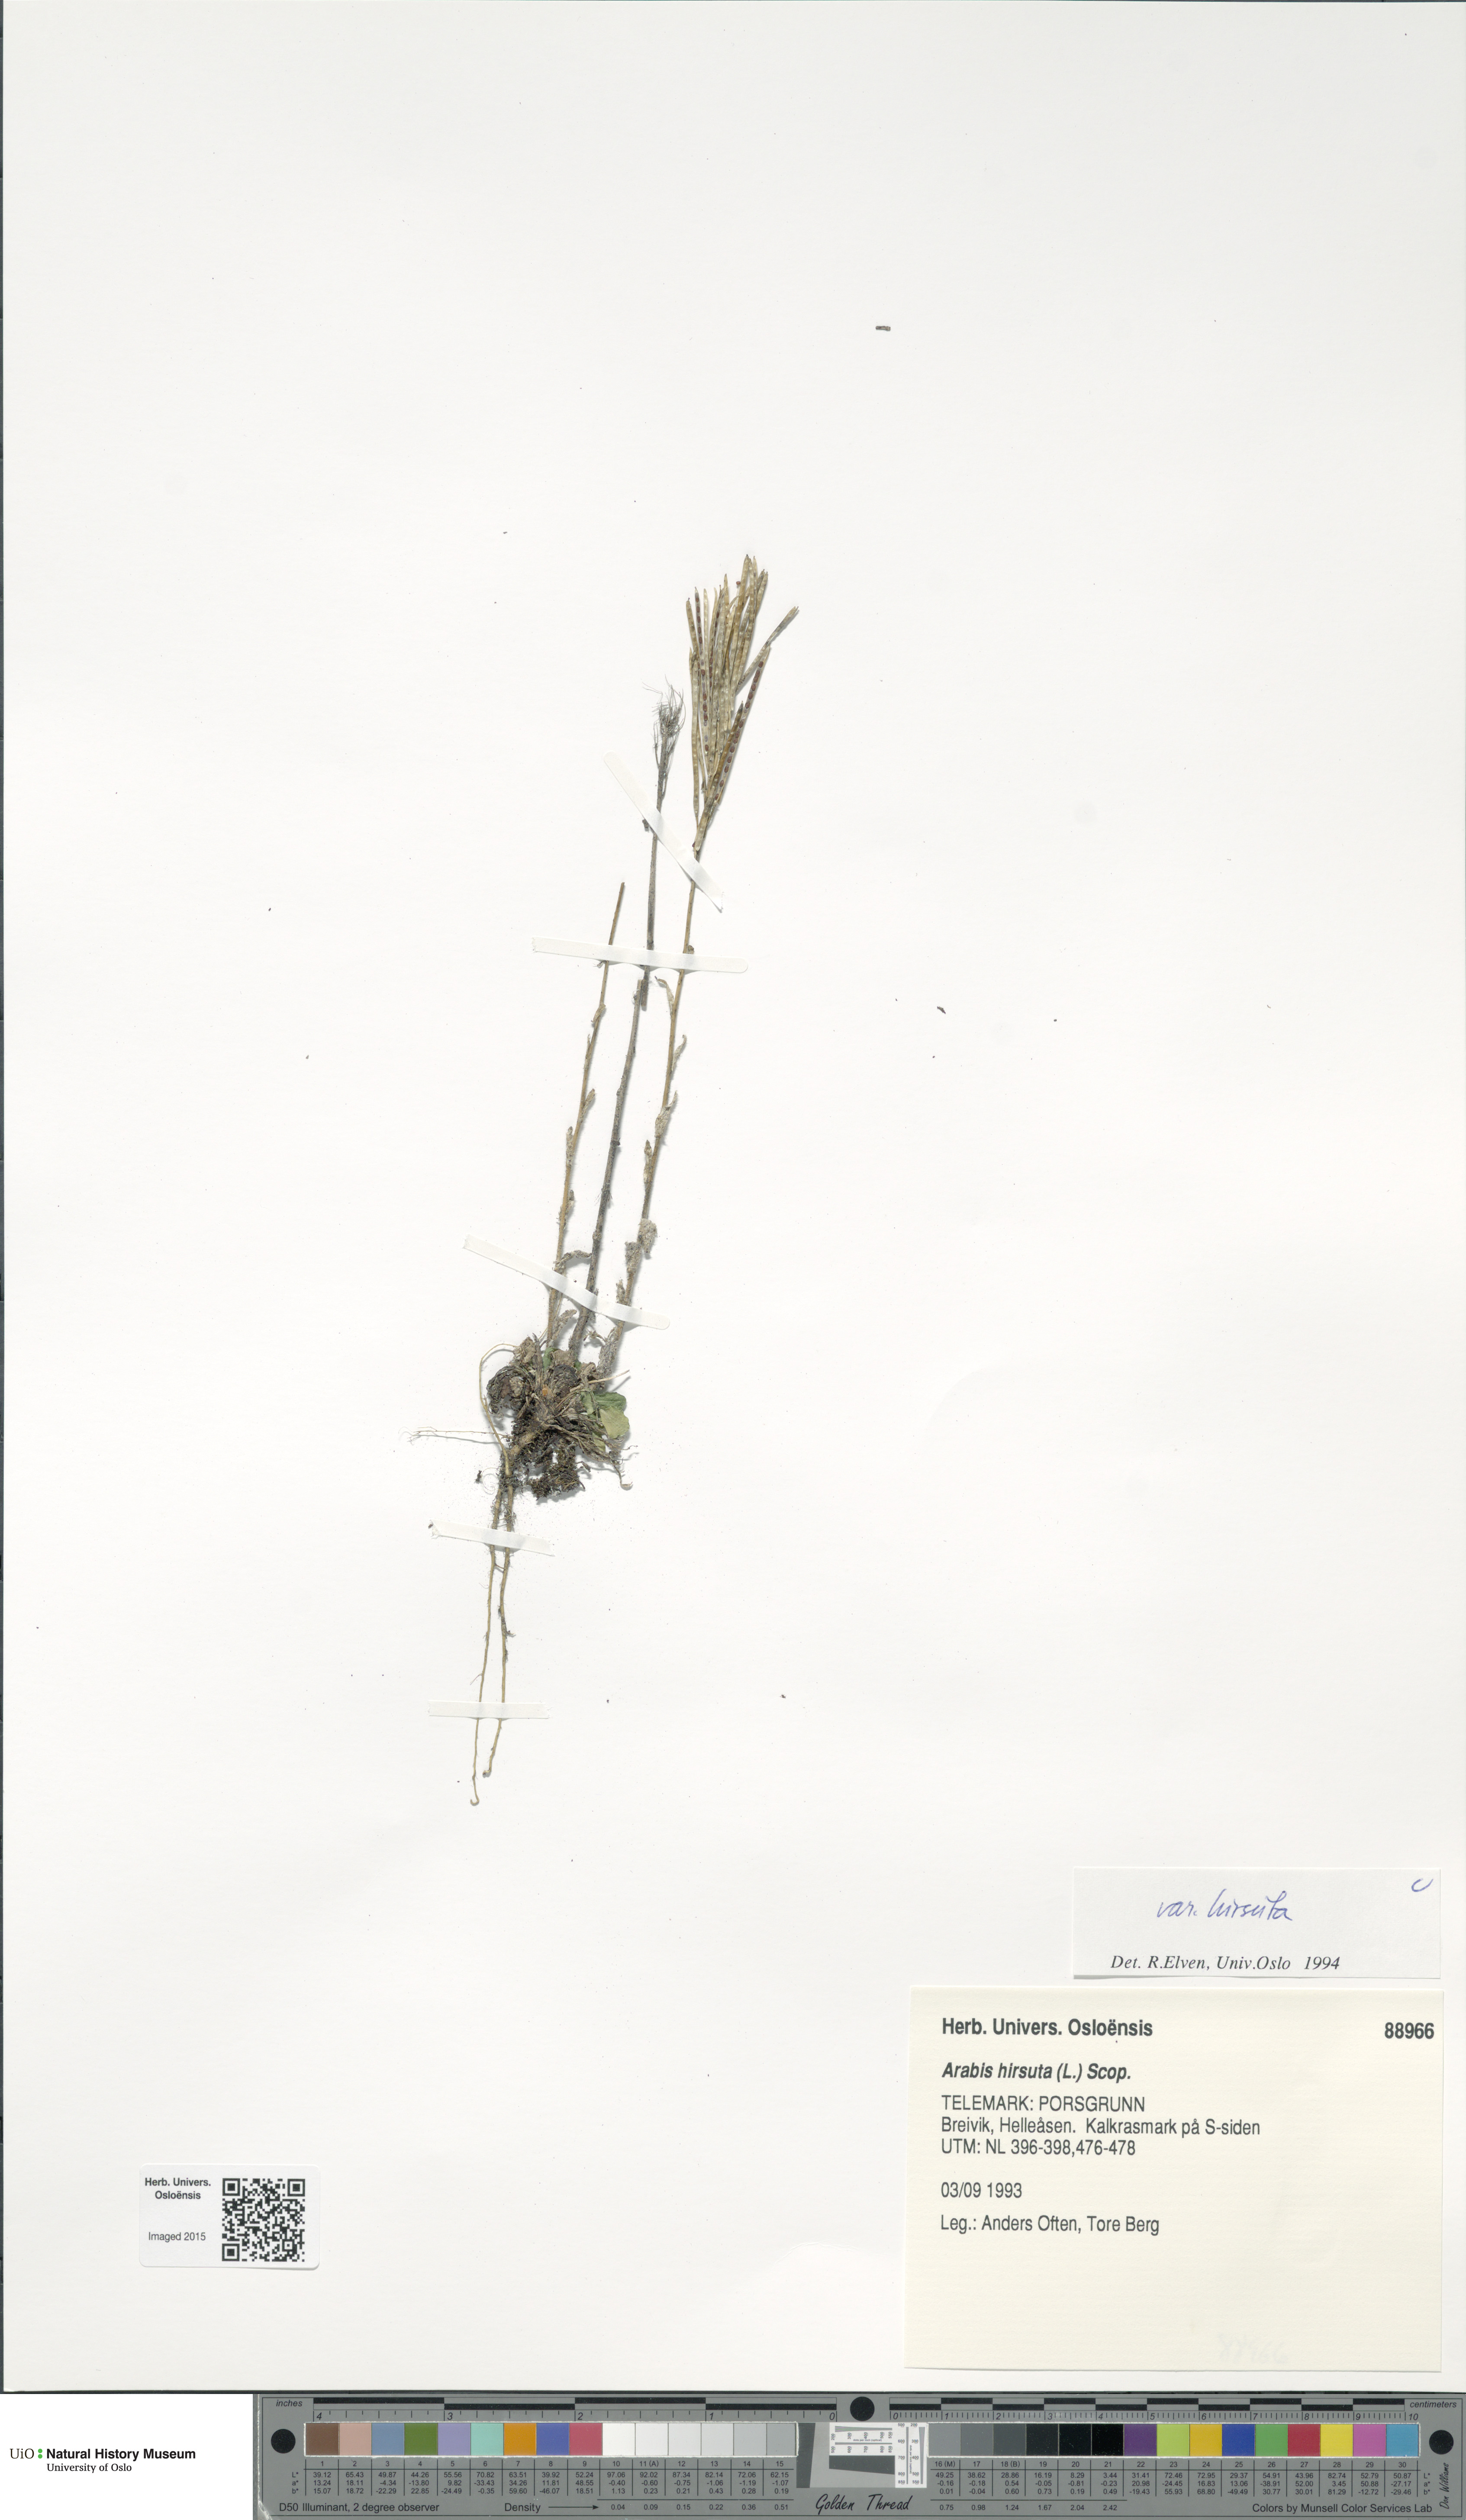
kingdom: Plantae
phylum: Tracheophyta
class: Magnoliopsida
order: Brassicales
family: Brassicaceae
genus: Arabis
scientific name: Arabis hirsuta
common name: Hairy rock-cress
